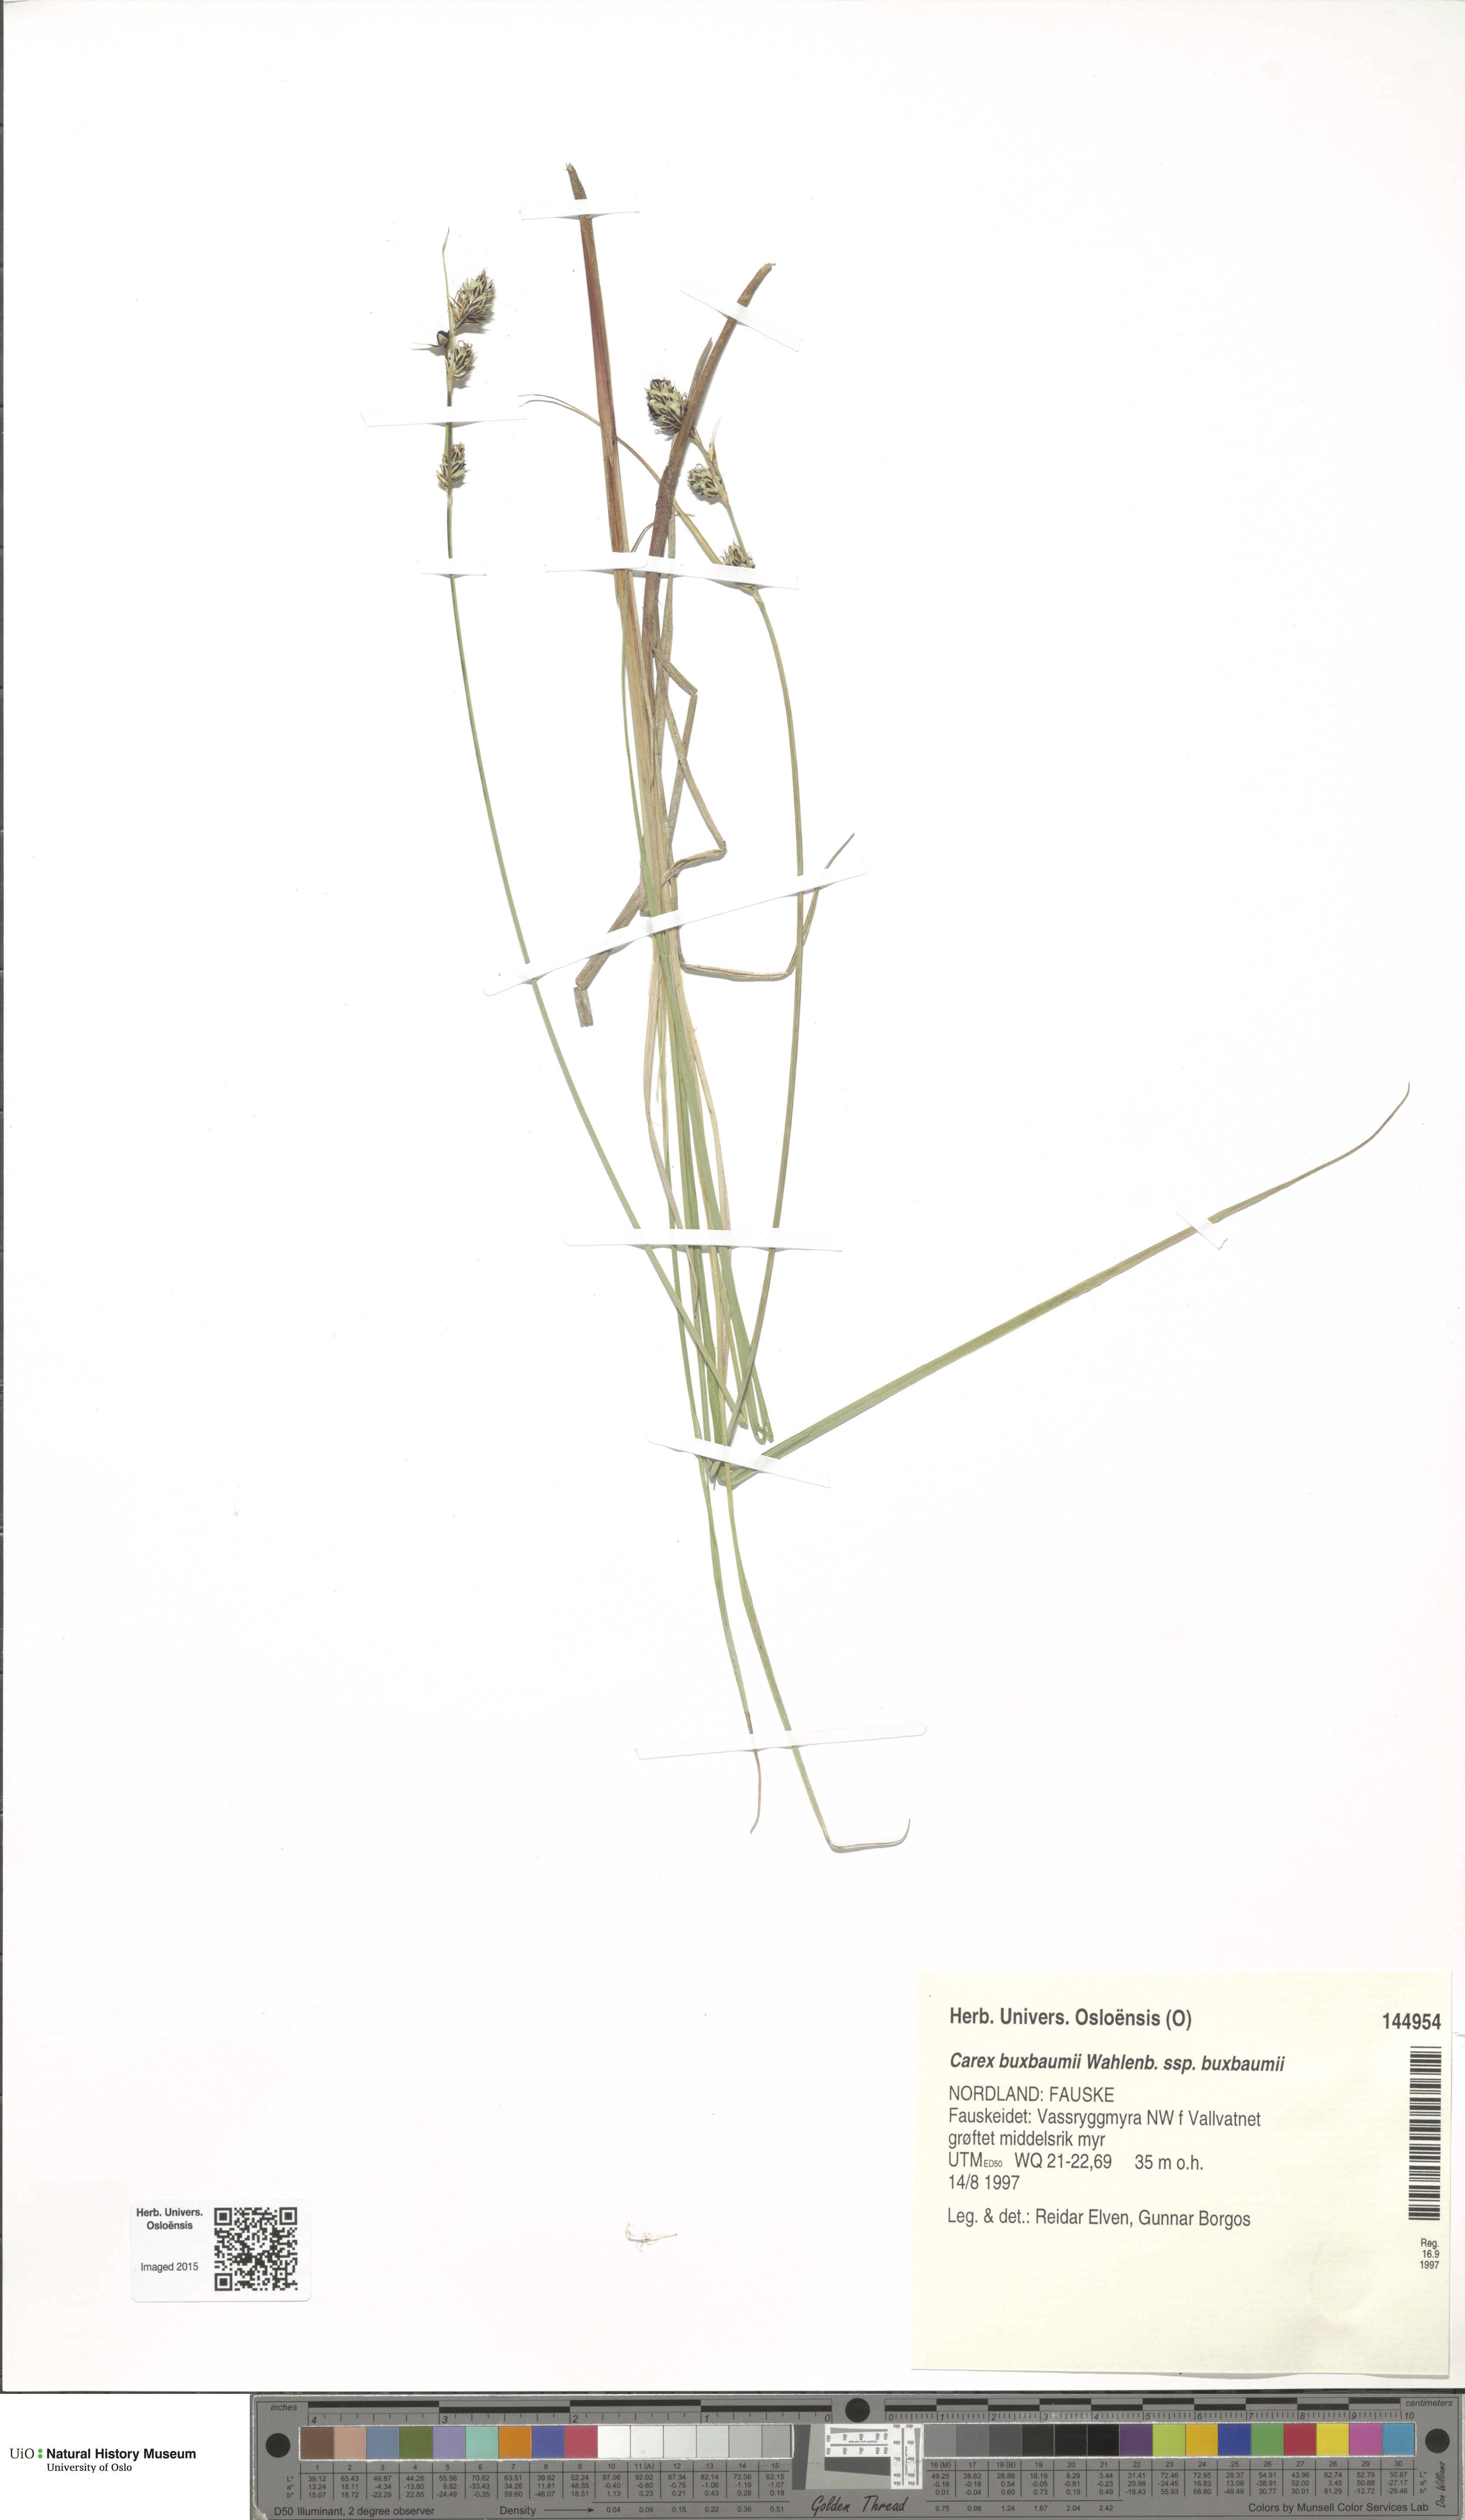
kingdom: Plantae
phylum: Tracheophyta
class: Liliopsida
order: Poales
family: Cyperaceae
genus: Carex
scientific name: Carex buxbaumii
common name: Club sedge
